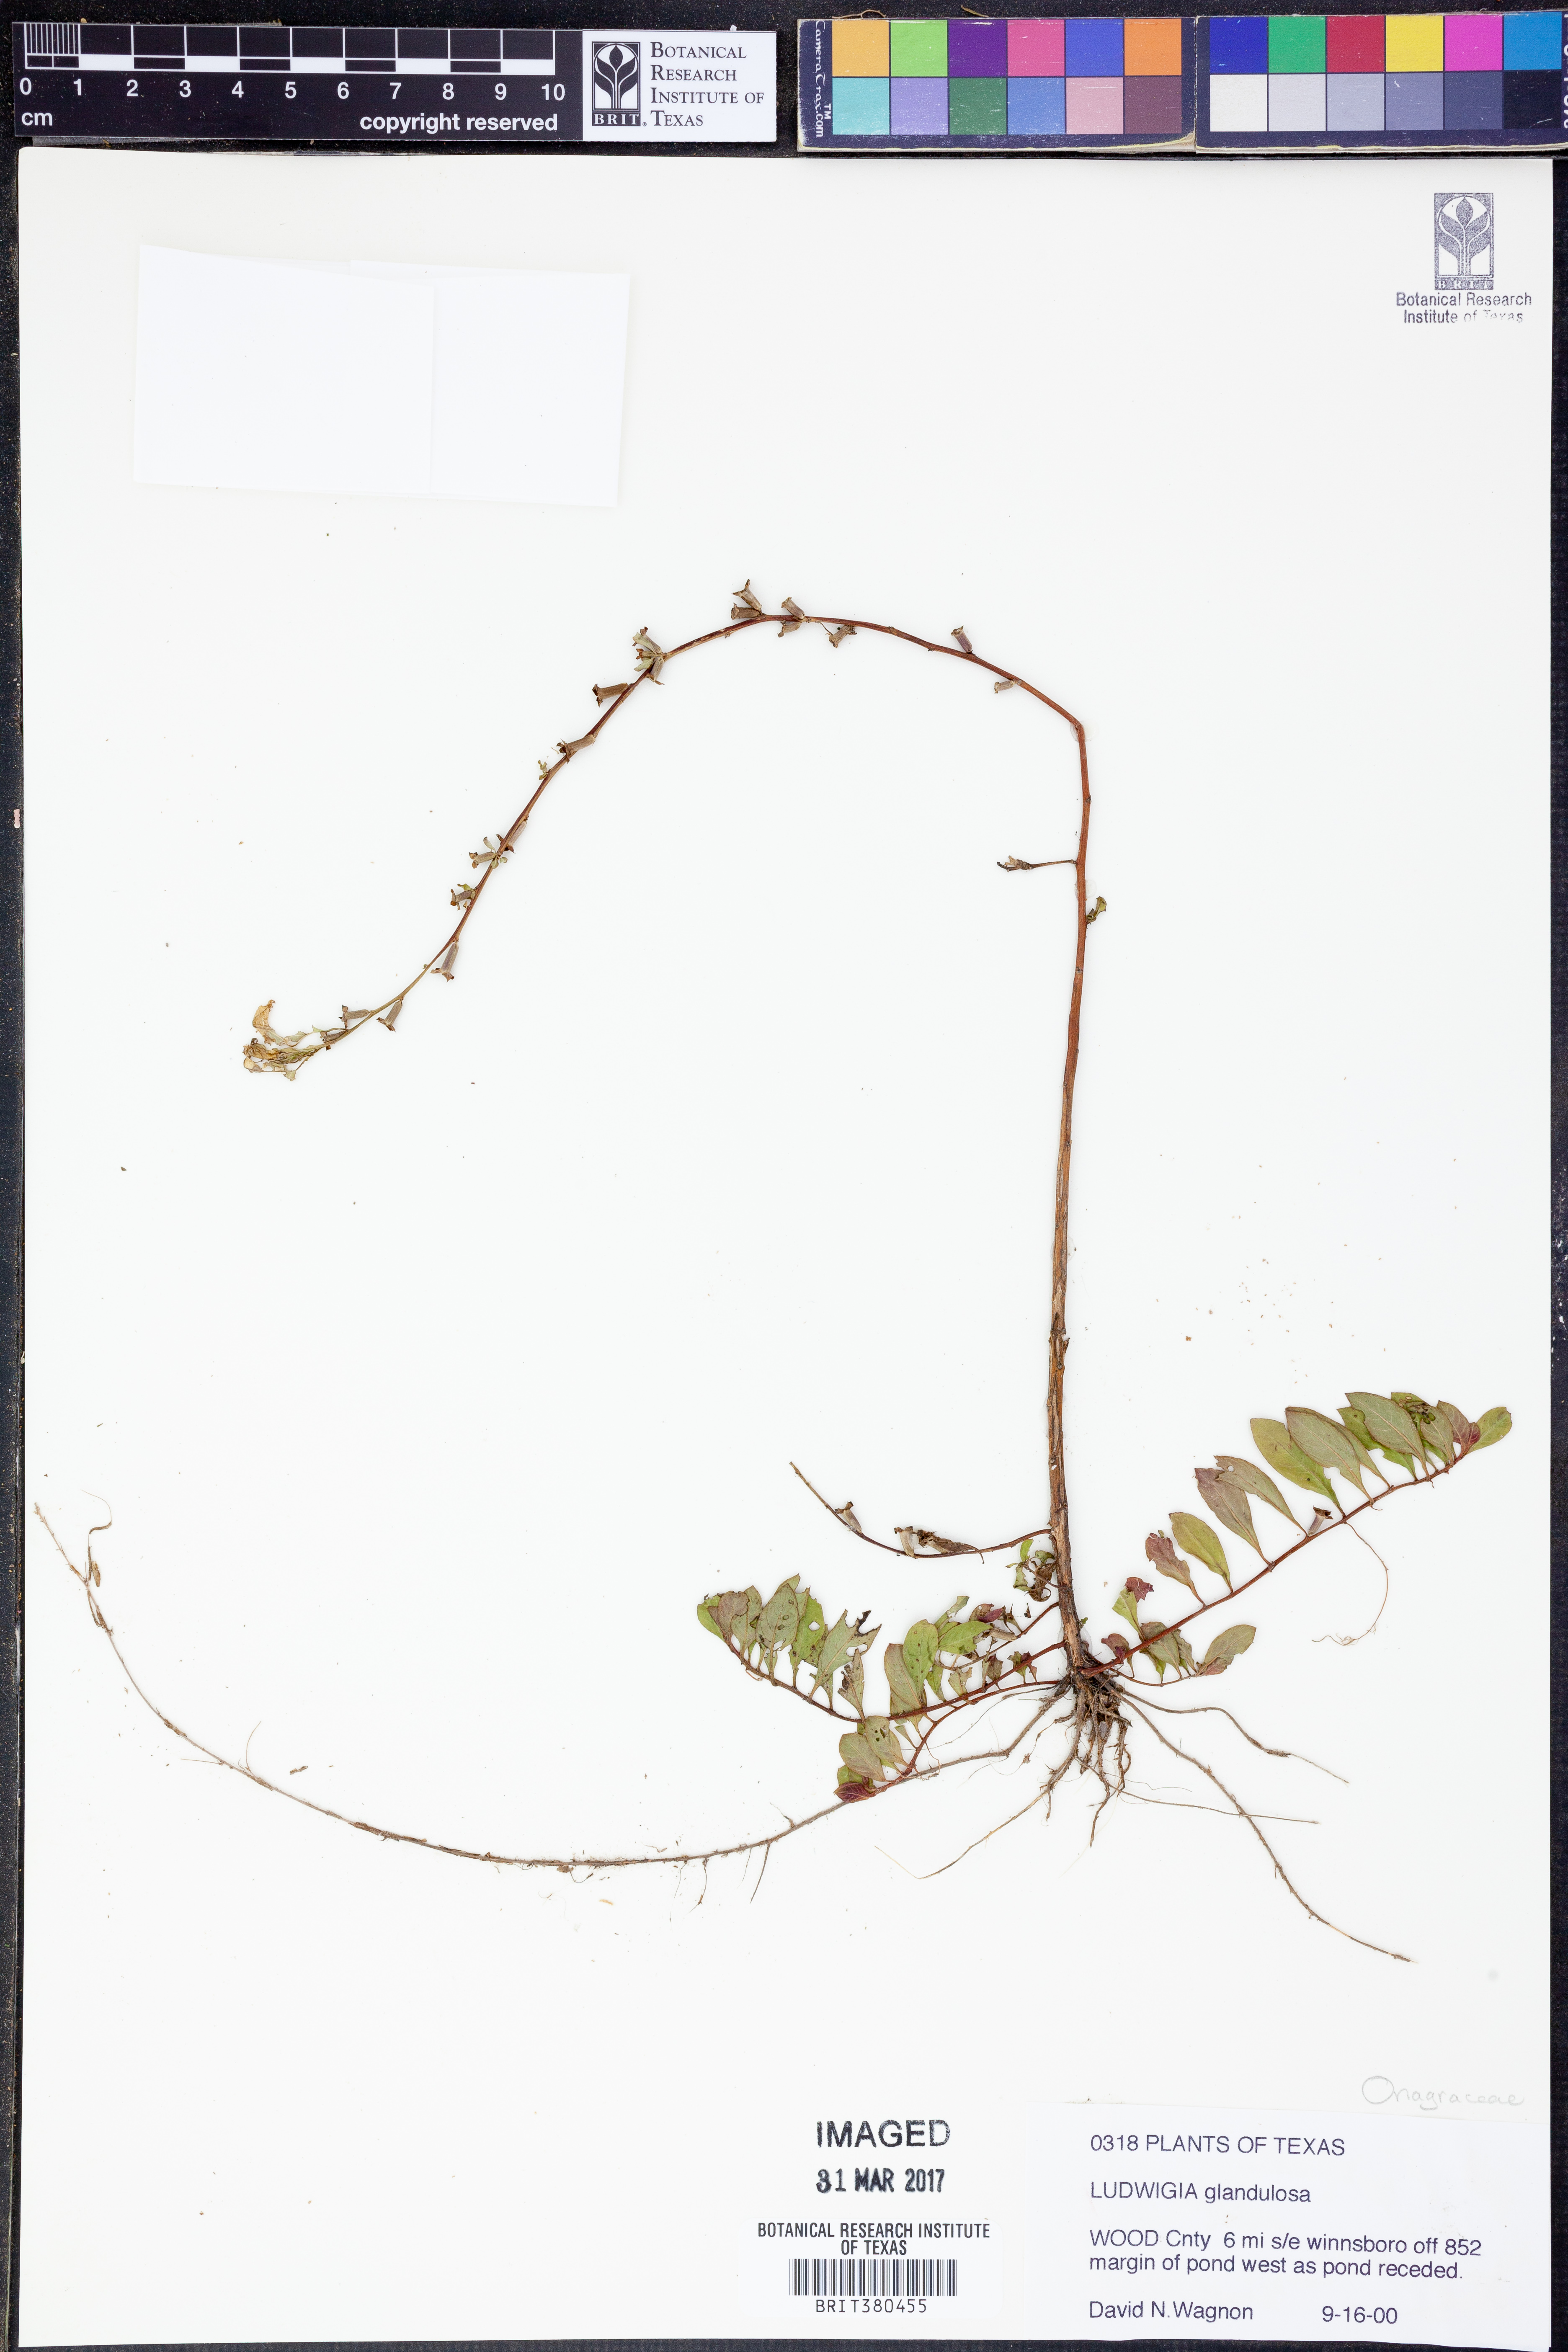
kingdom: Plantae
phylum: Tracheophyta
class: Magnoliopsida
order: Myrtales
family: Onagraceae
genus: Ludwigia
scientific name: Ludwigia glandulosa
